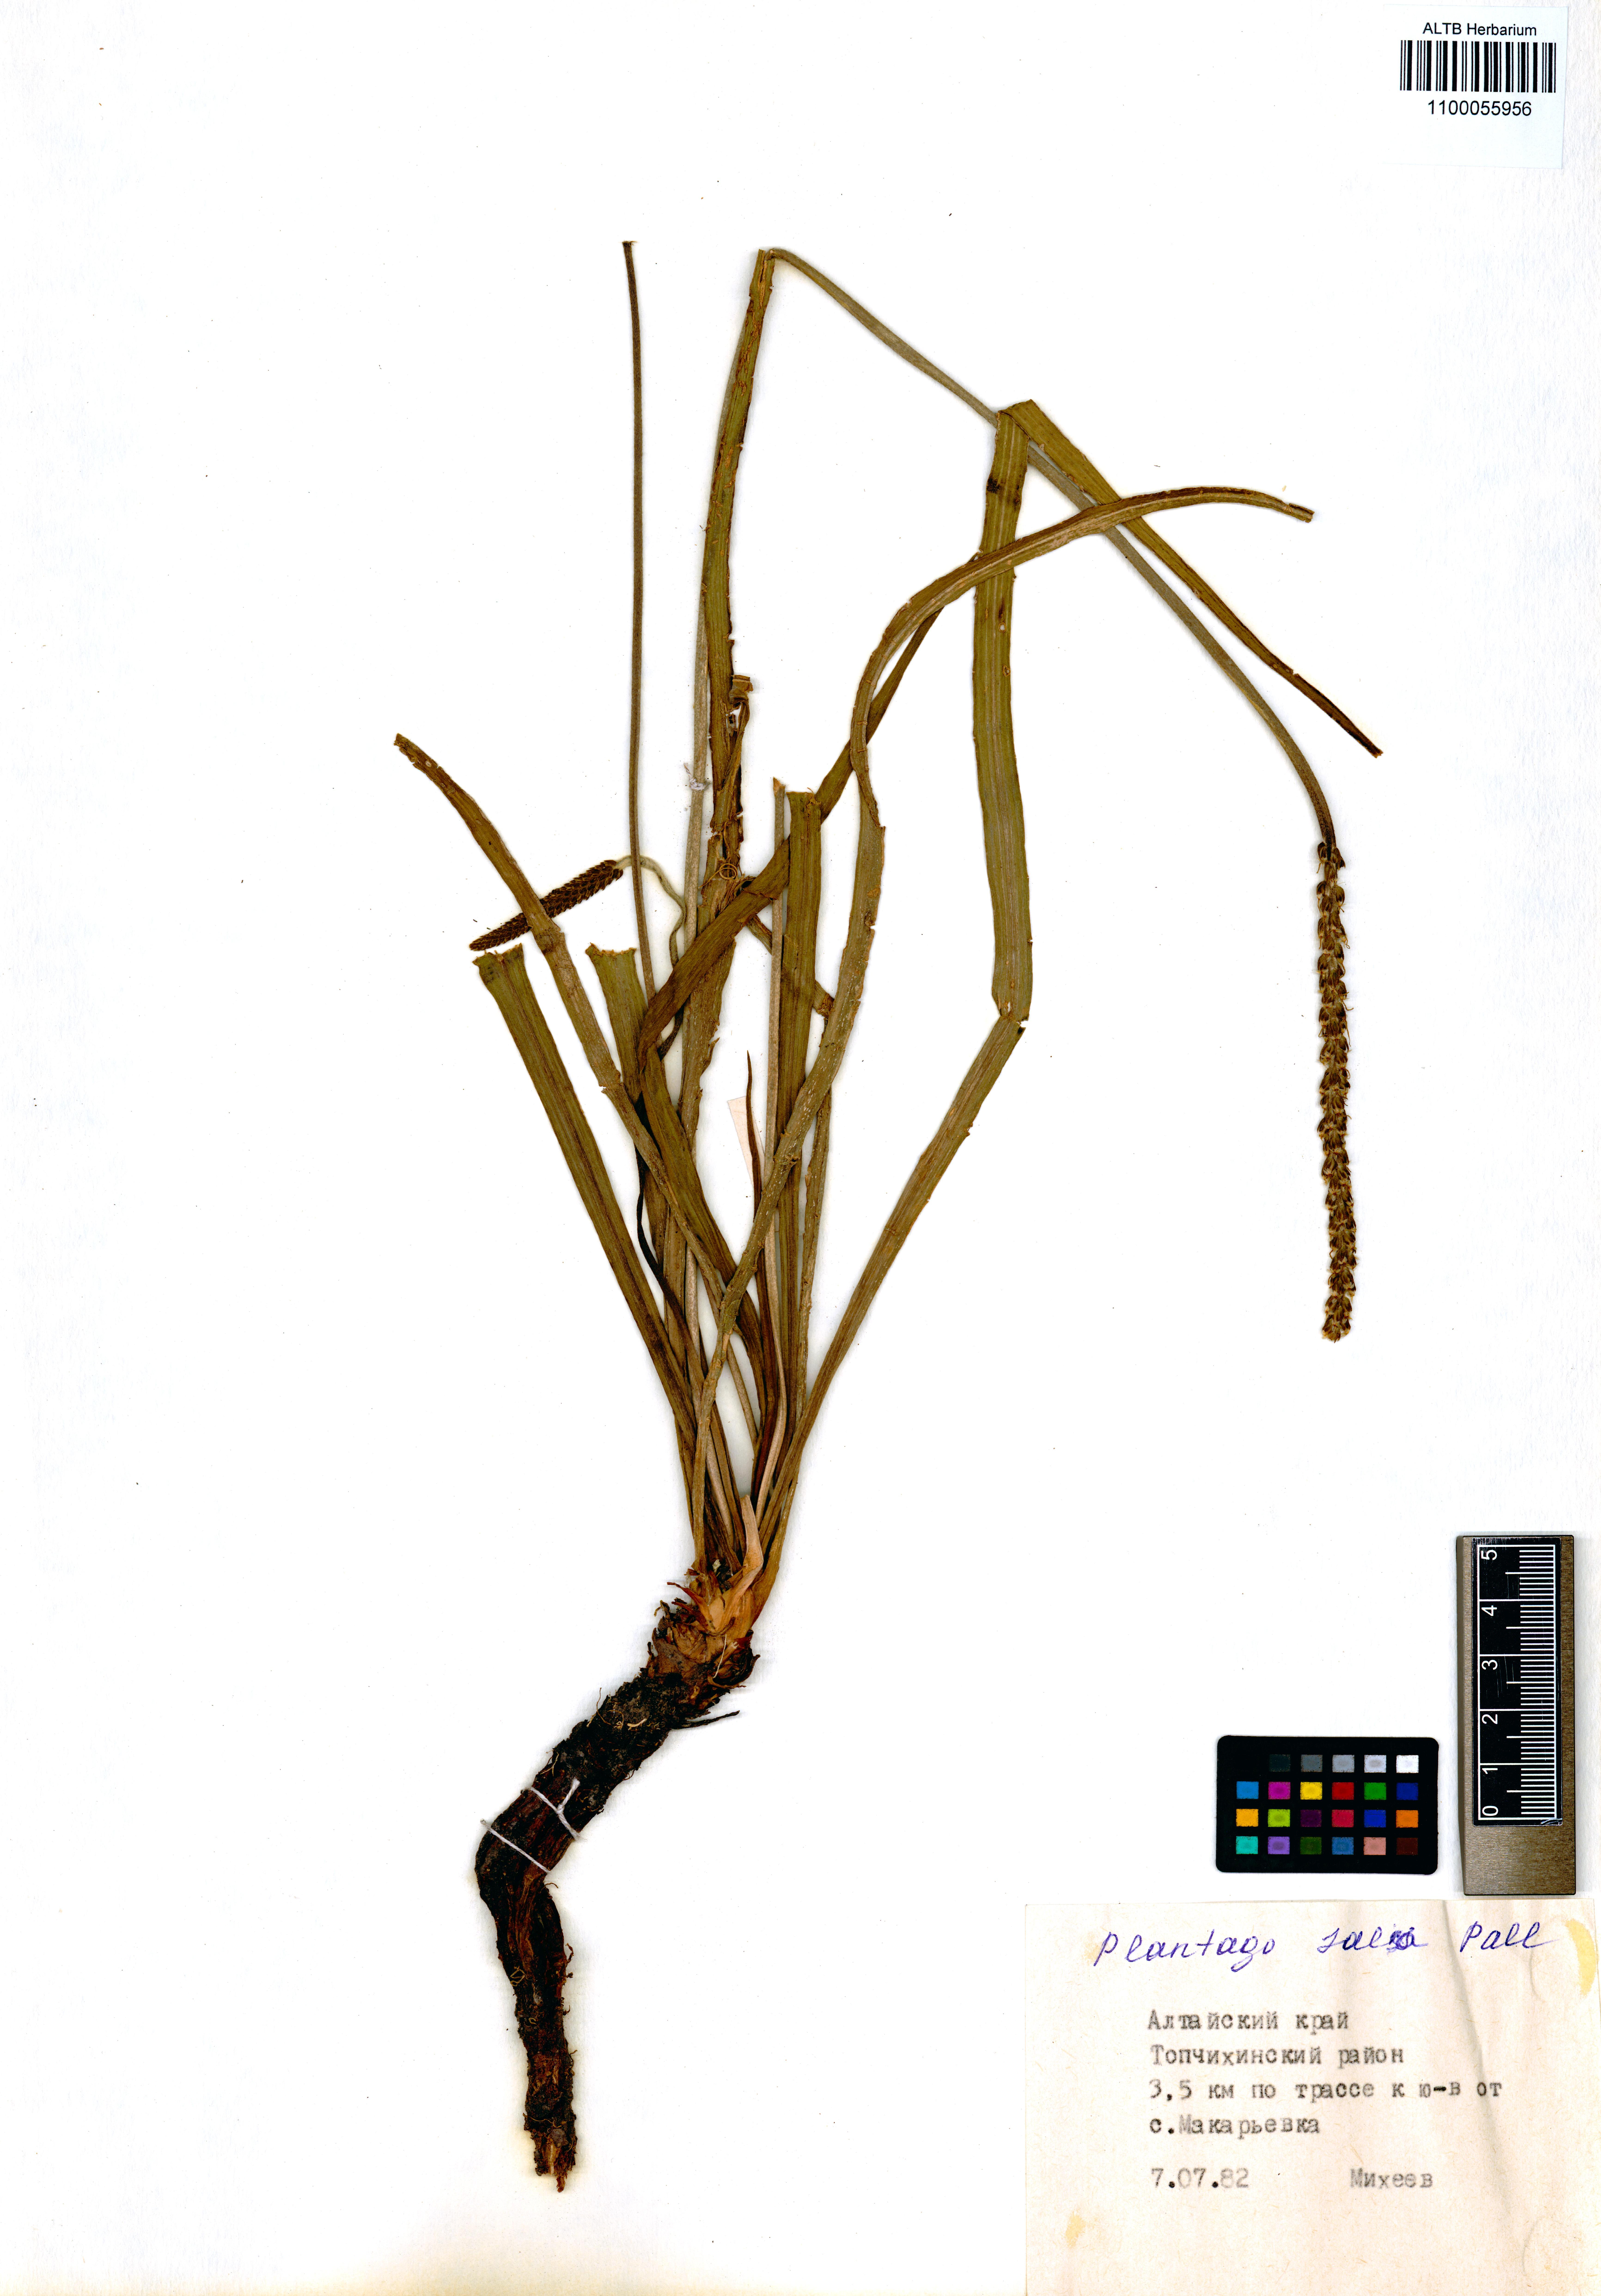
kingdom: Plantae
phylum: Tracheophyta
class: Magnoliopsida
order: Lamiales
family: Plantaginaceae
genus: Plantago
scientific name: Plantago salsa
